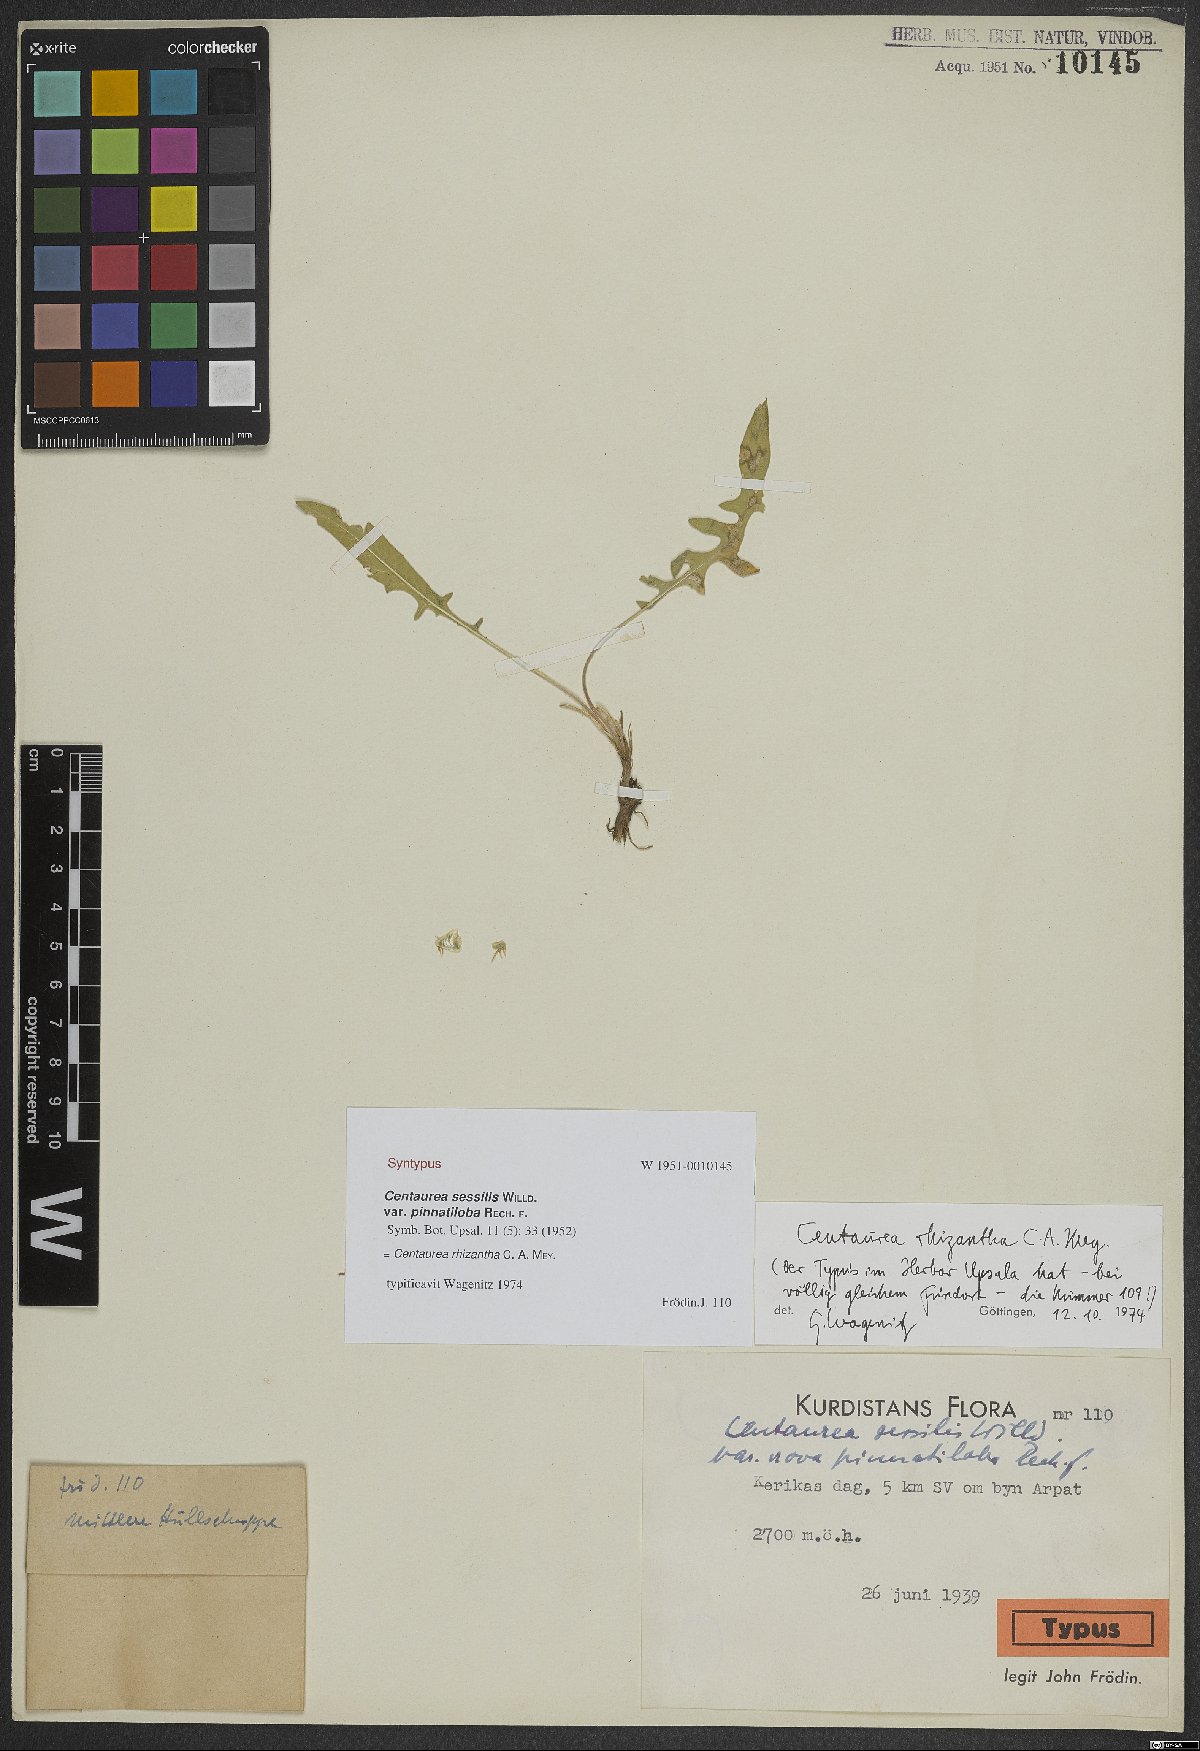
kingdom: Plantae
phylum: Tracheophyta
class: Magnoliopsida
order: Asterales
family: Asteraceae
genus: Centaurea
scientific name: Centaurea rhizantha
